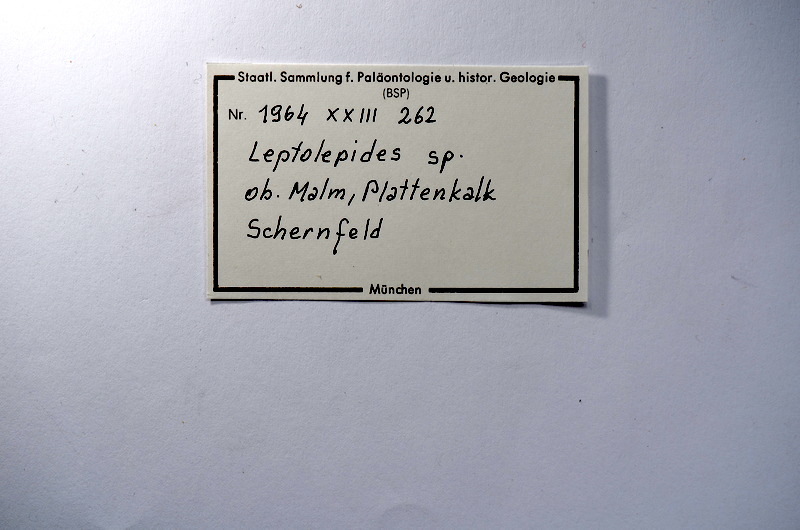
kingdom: Animalia
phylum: Chordata
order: Salmoniformes
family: Orthogonikleithridae
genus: Leptolepides
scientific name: Leptolepides
